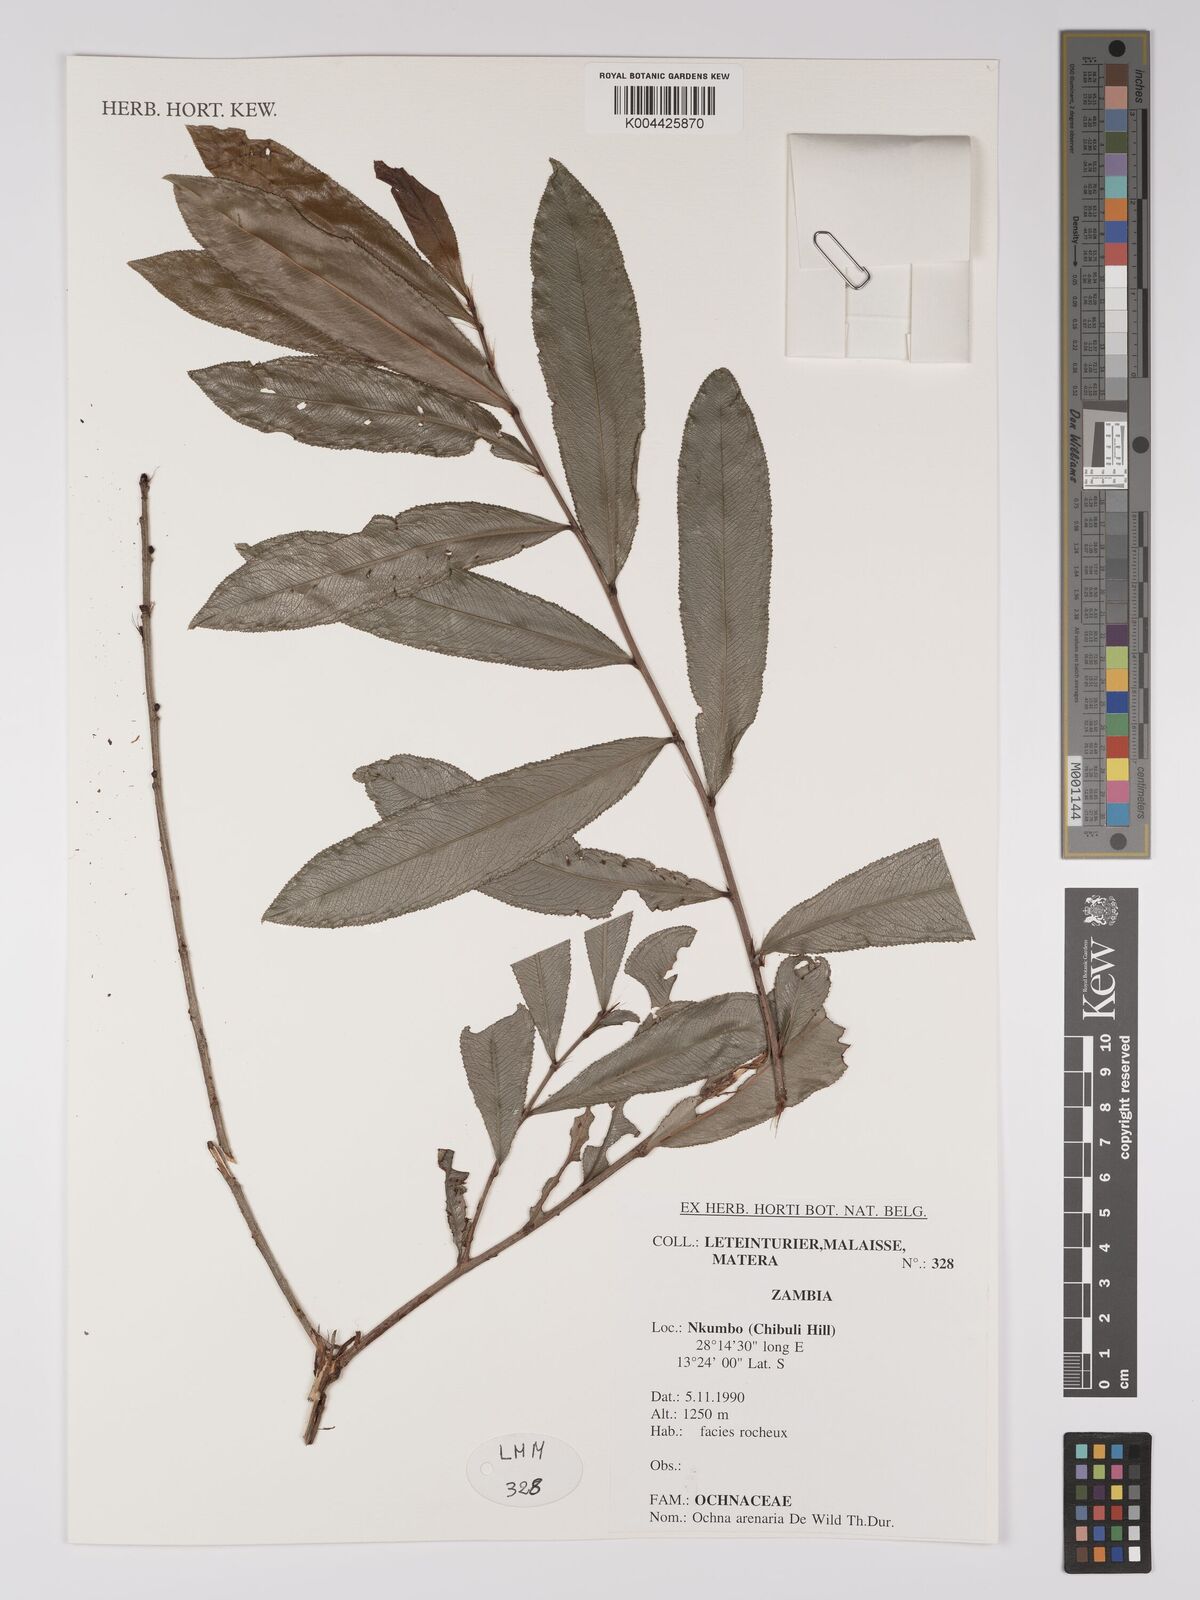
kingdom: Plantae
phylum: Tracheophyta
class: Magnoliopsida
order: Malpighiales
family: Ochnaceae
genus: Ochna
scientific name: Ochna arenaria
